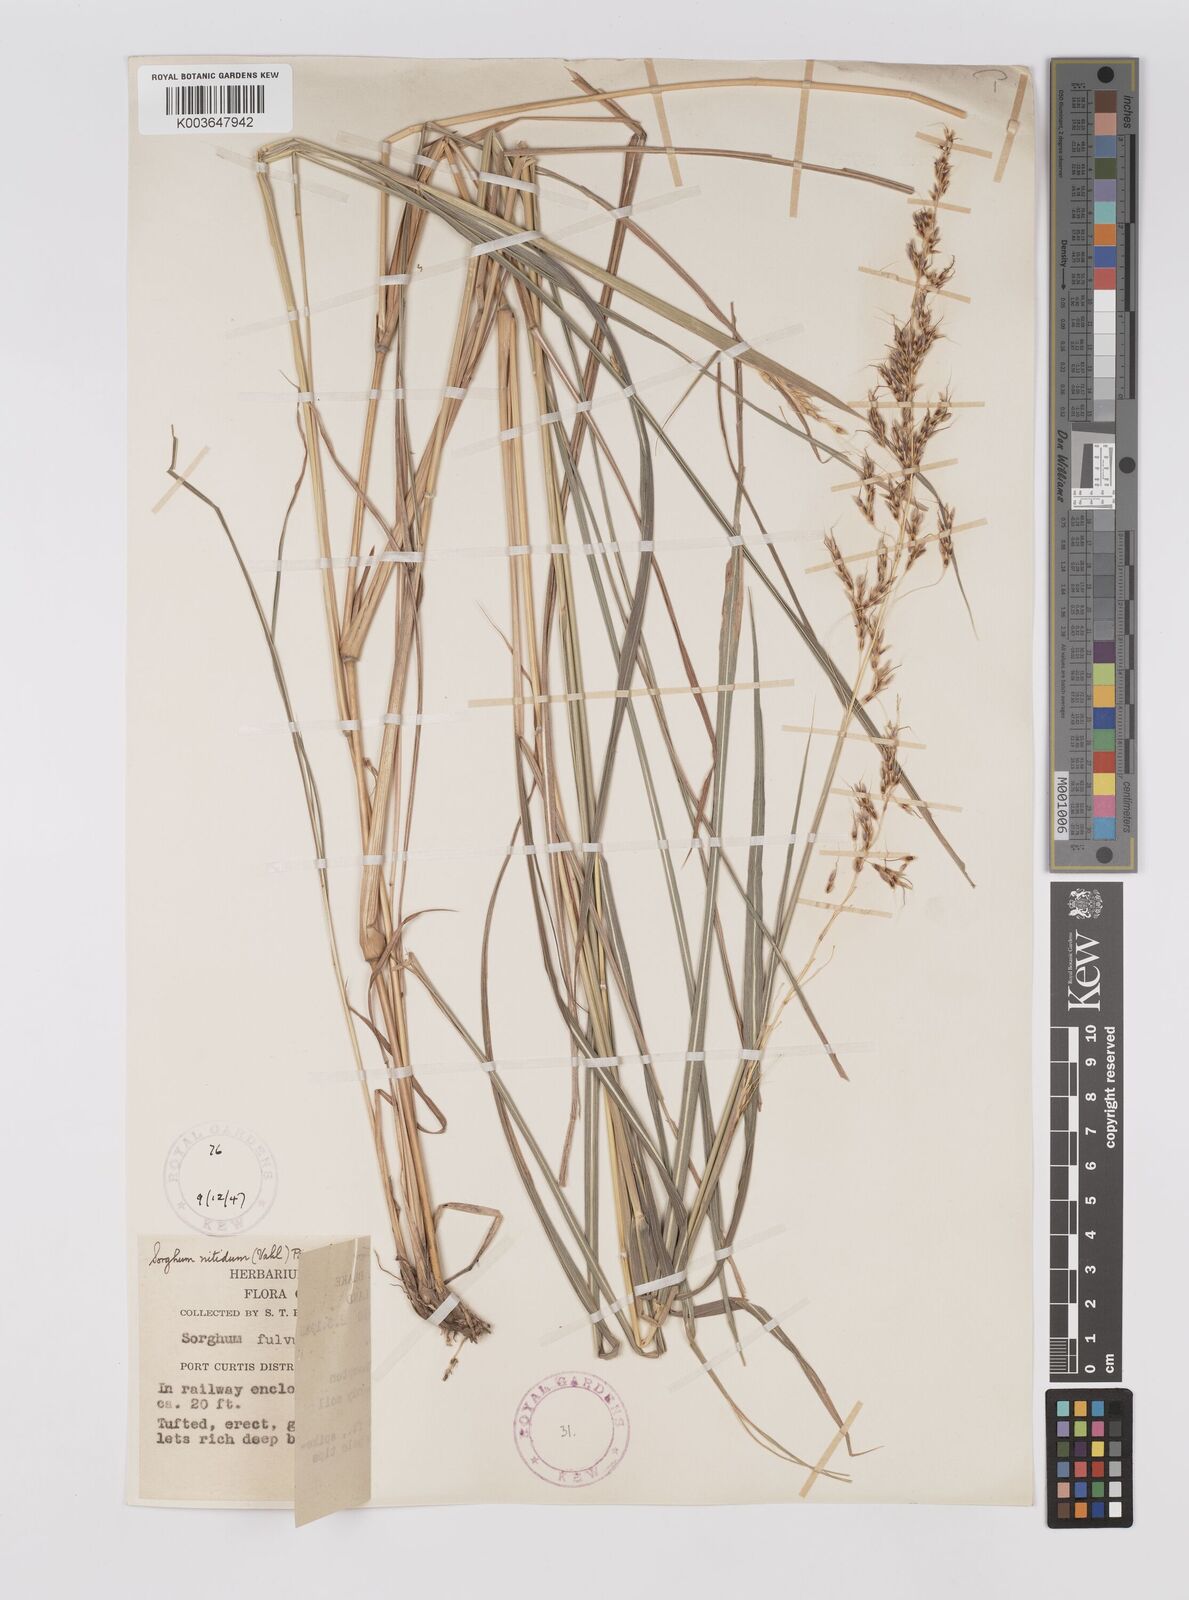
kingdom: Plantae
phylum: Tracheophyta
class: Liliopsida
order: Poales
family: Poaceae
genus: Sorghum
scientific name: Sorghum nitidum
